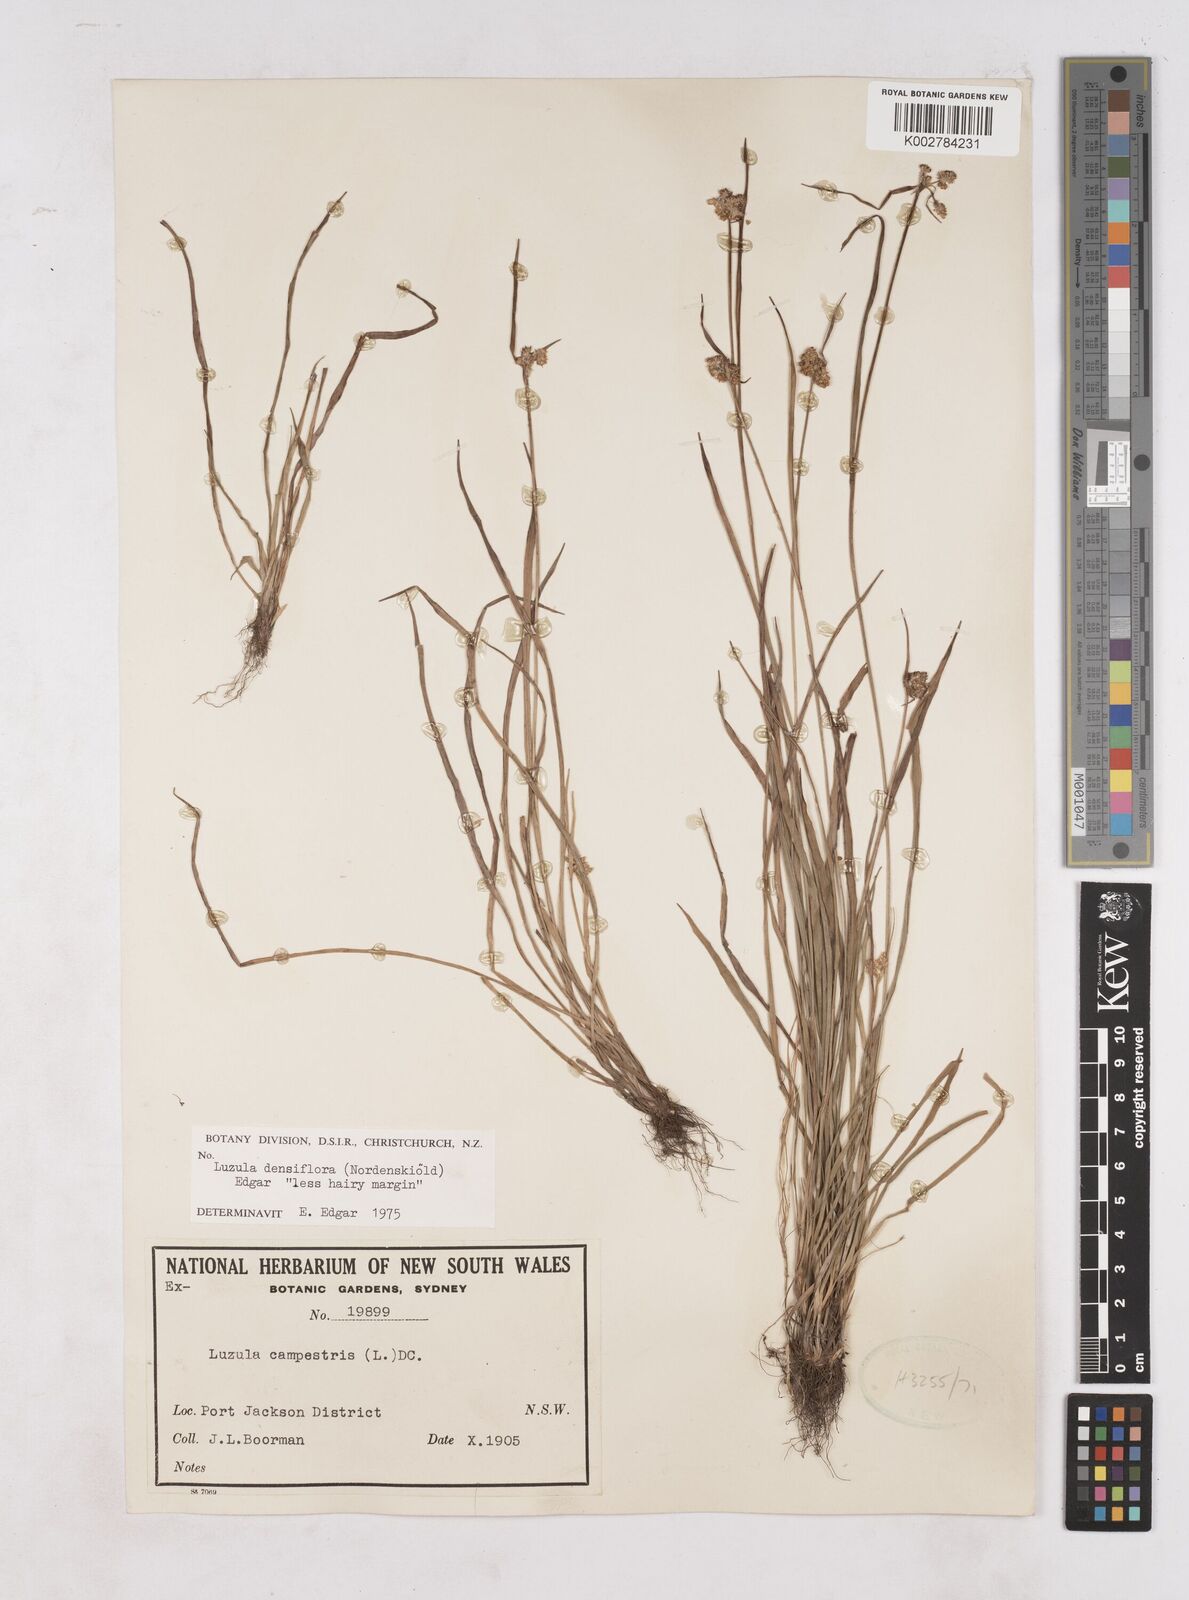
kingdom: Plantae
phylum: Tracheophyta
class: Liliopsida
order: Poales
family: Juncaceae
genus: Luzula
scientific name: Luzula densiflora
